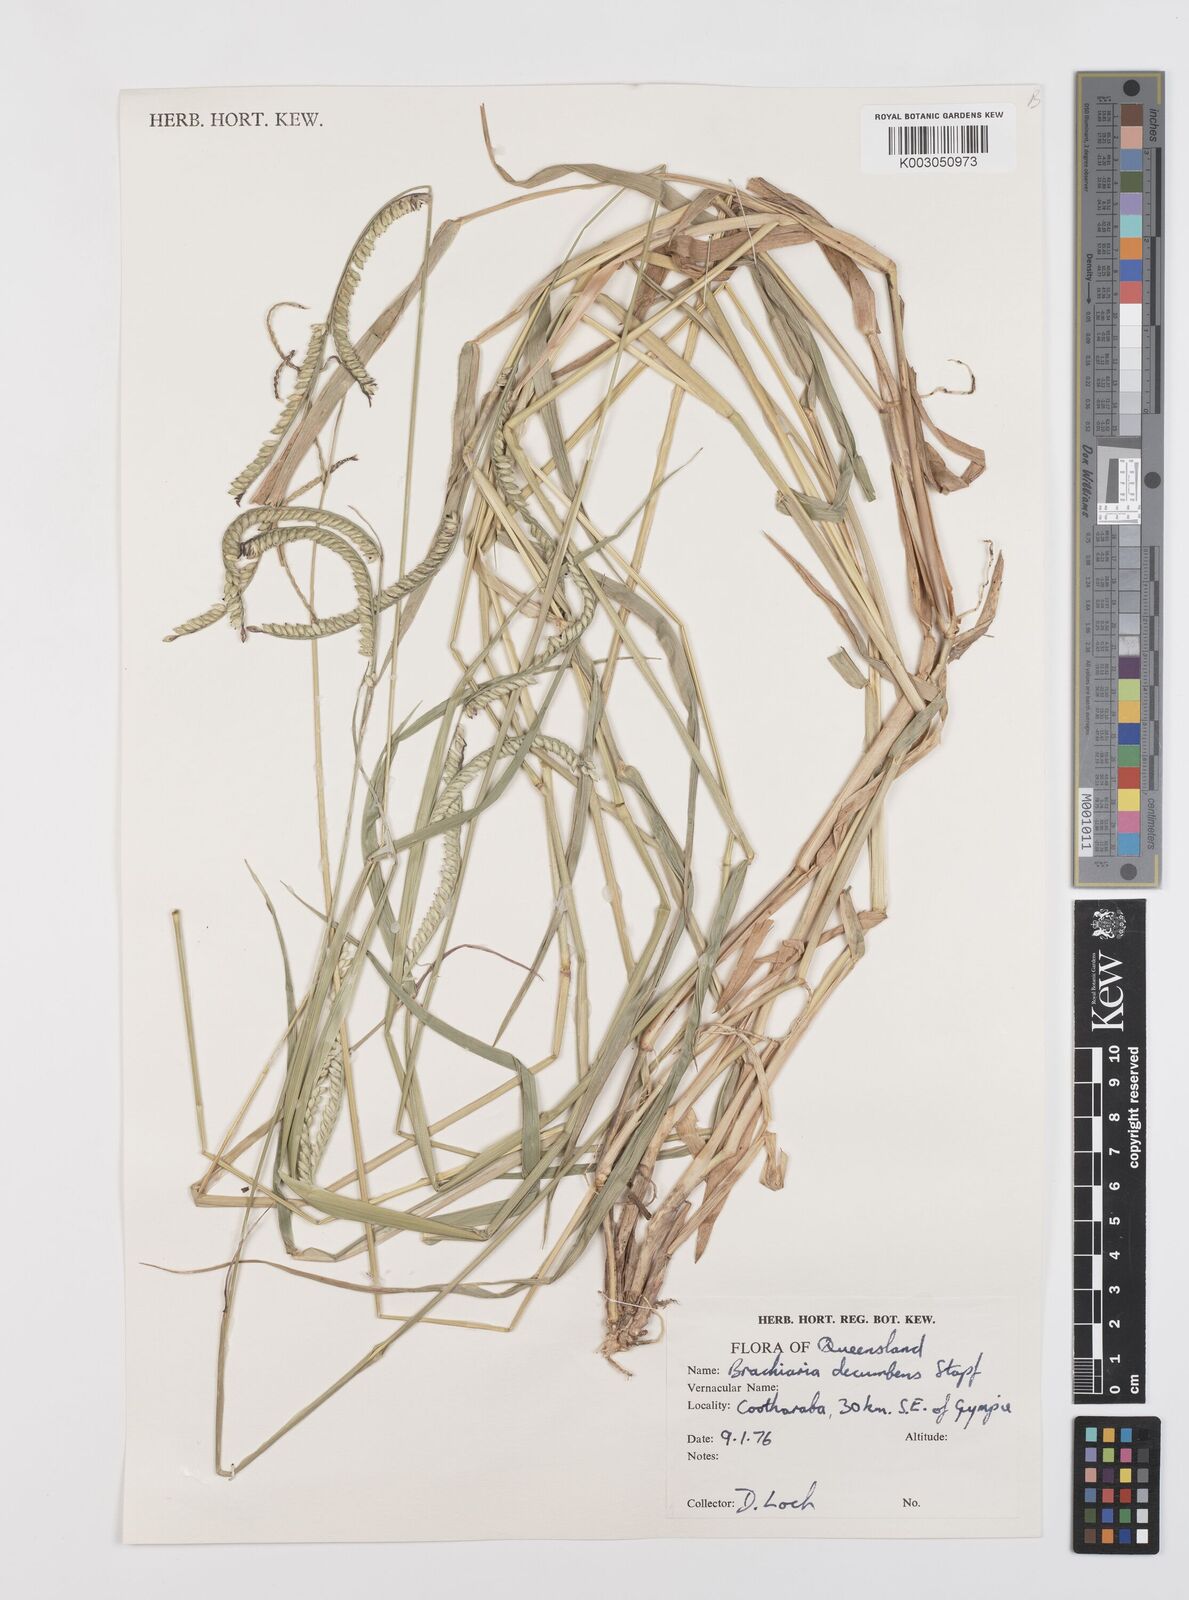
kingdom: Plantae
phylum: Tracheophyta
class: Liliopsida
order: Poales
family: Poaceae
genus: Urochloa
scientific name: Urochloa eminii
